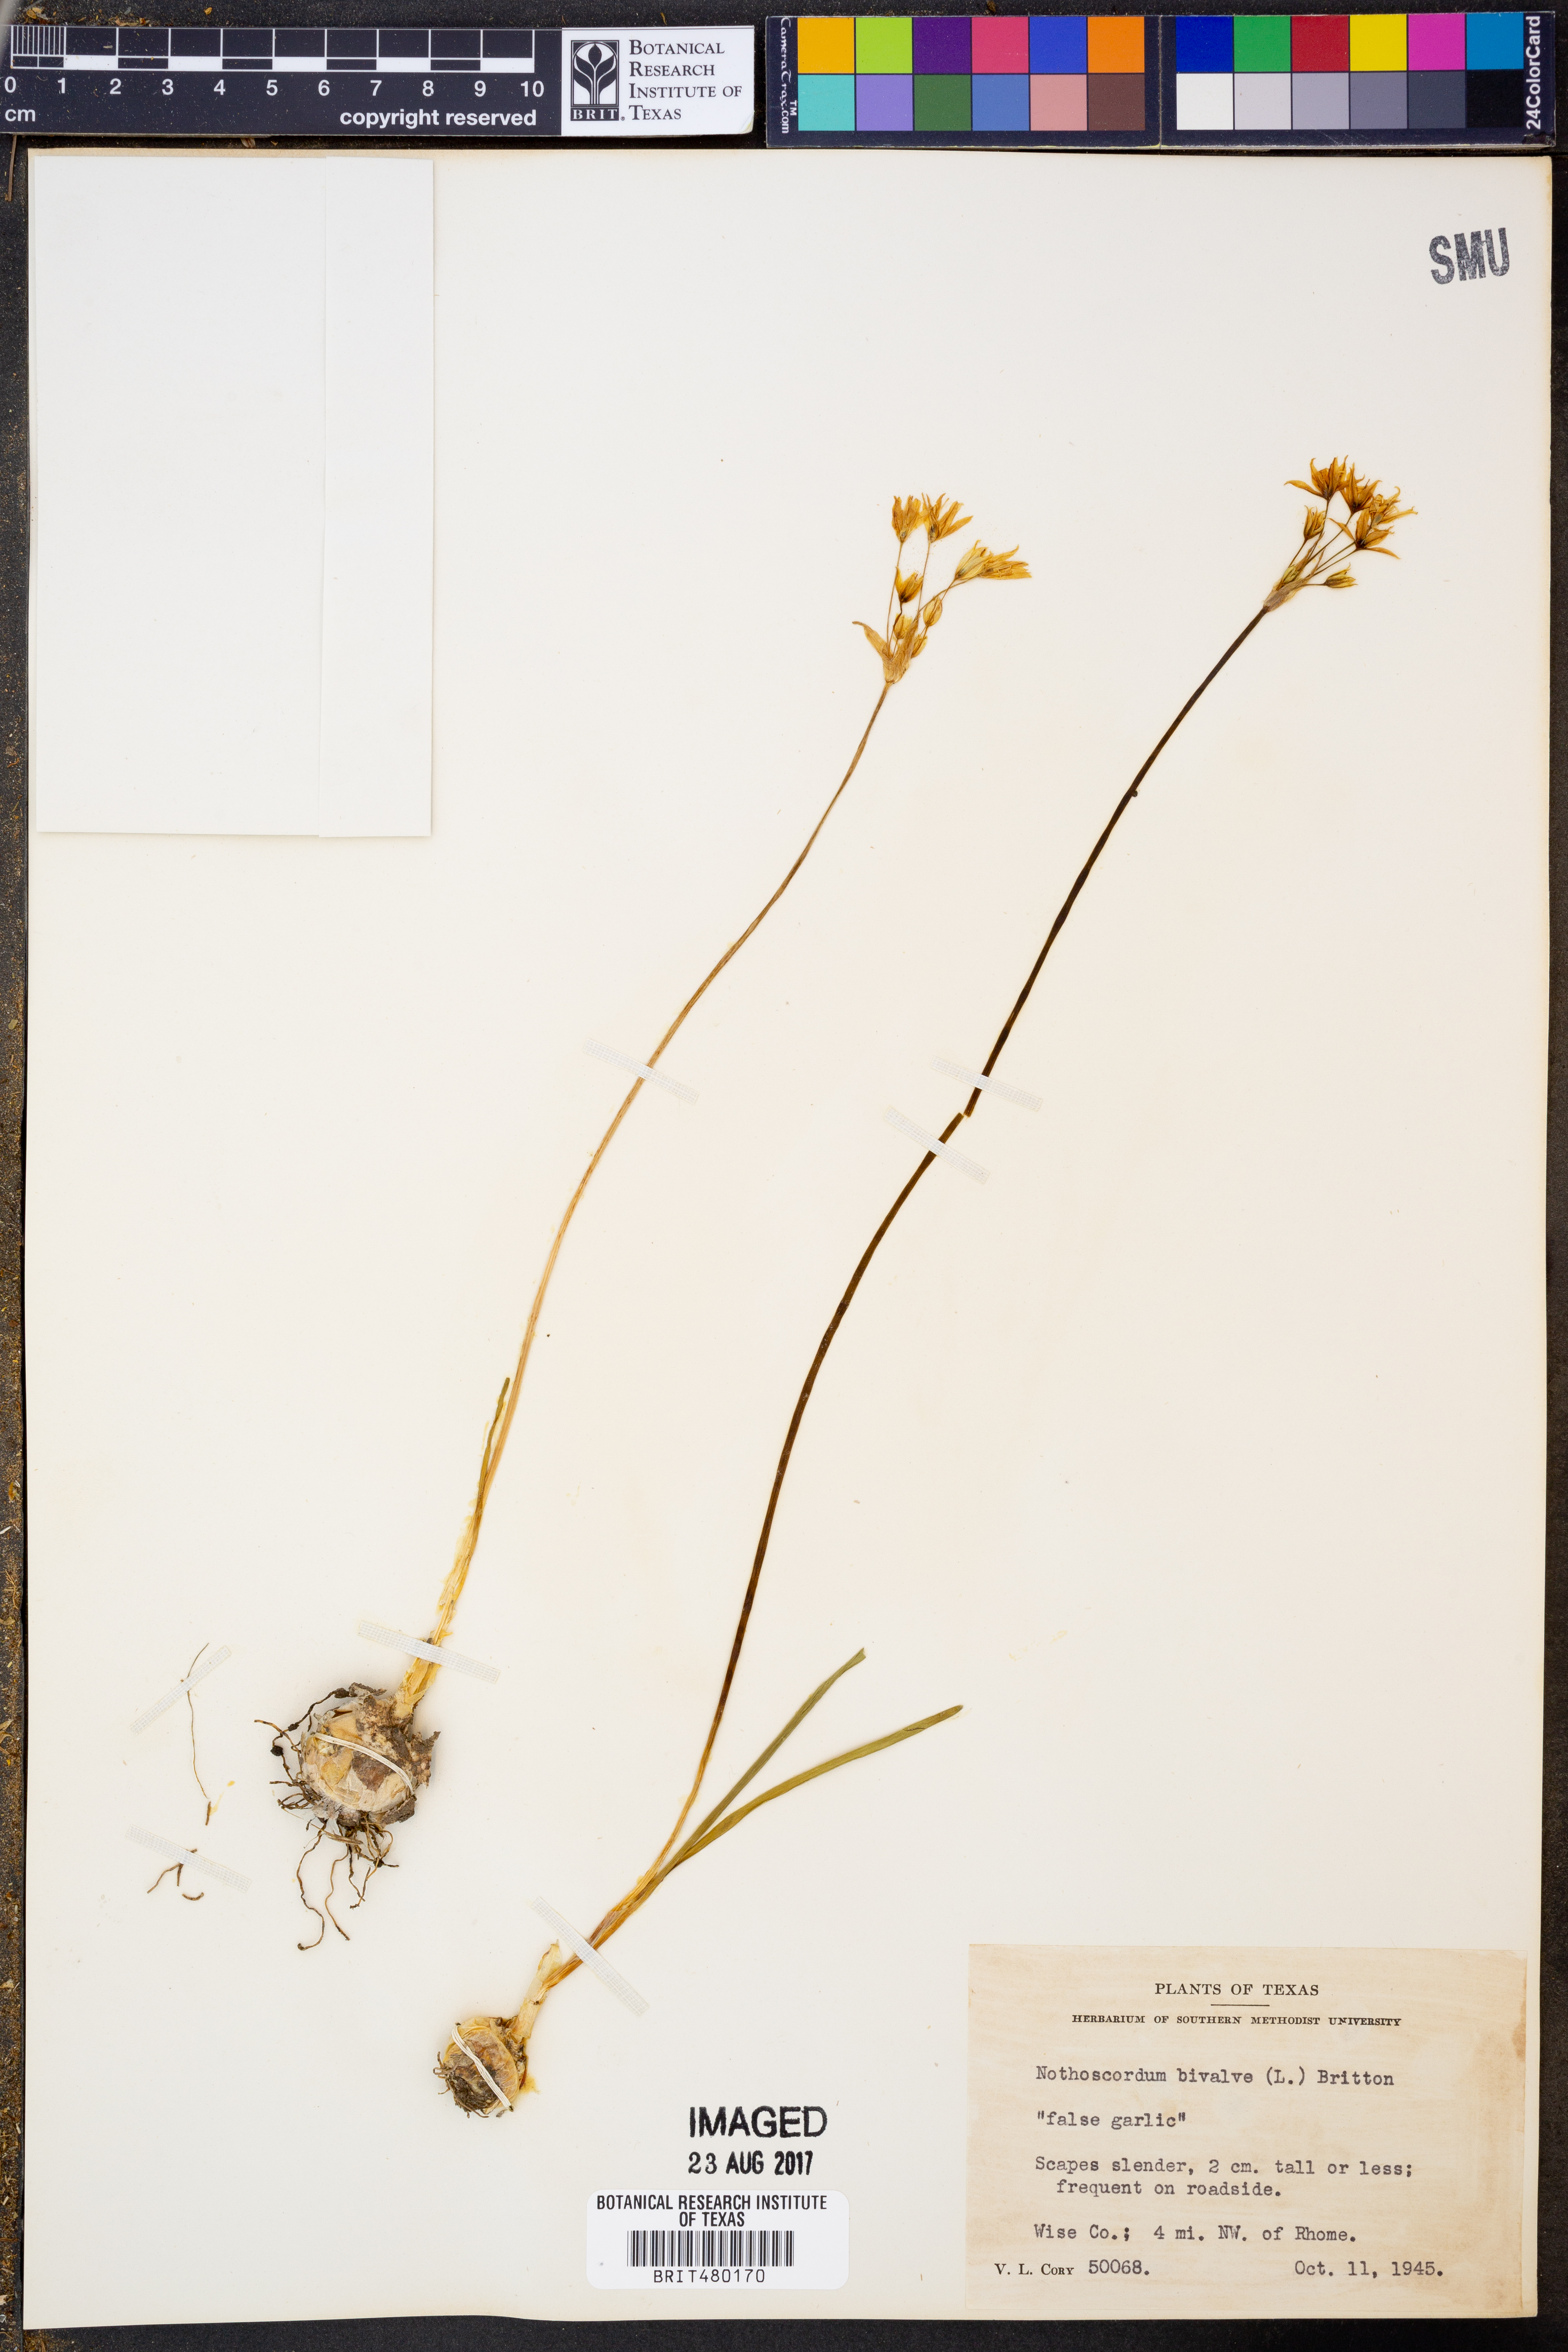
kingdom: Plantae
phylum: Tracheophyta
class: Liliopsida
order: Asparagales
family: Amaryllidaceae
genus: Nothoscordum
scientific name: Nothoscordum bivalve
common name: Crow-poison
